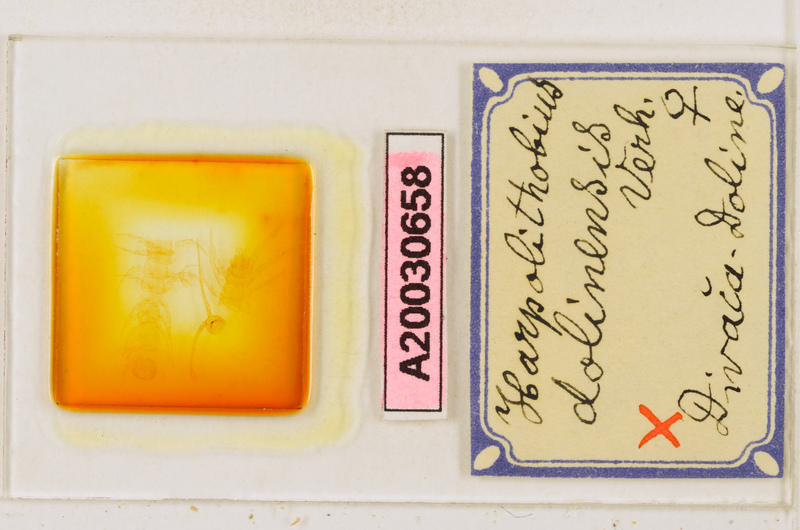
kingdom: Animalia
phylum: Arthropoda
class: Chilopoda
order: Lithobiomorpha
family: Lithobiidae
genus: Harpolithobius
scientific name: Harpolithobius anodus
